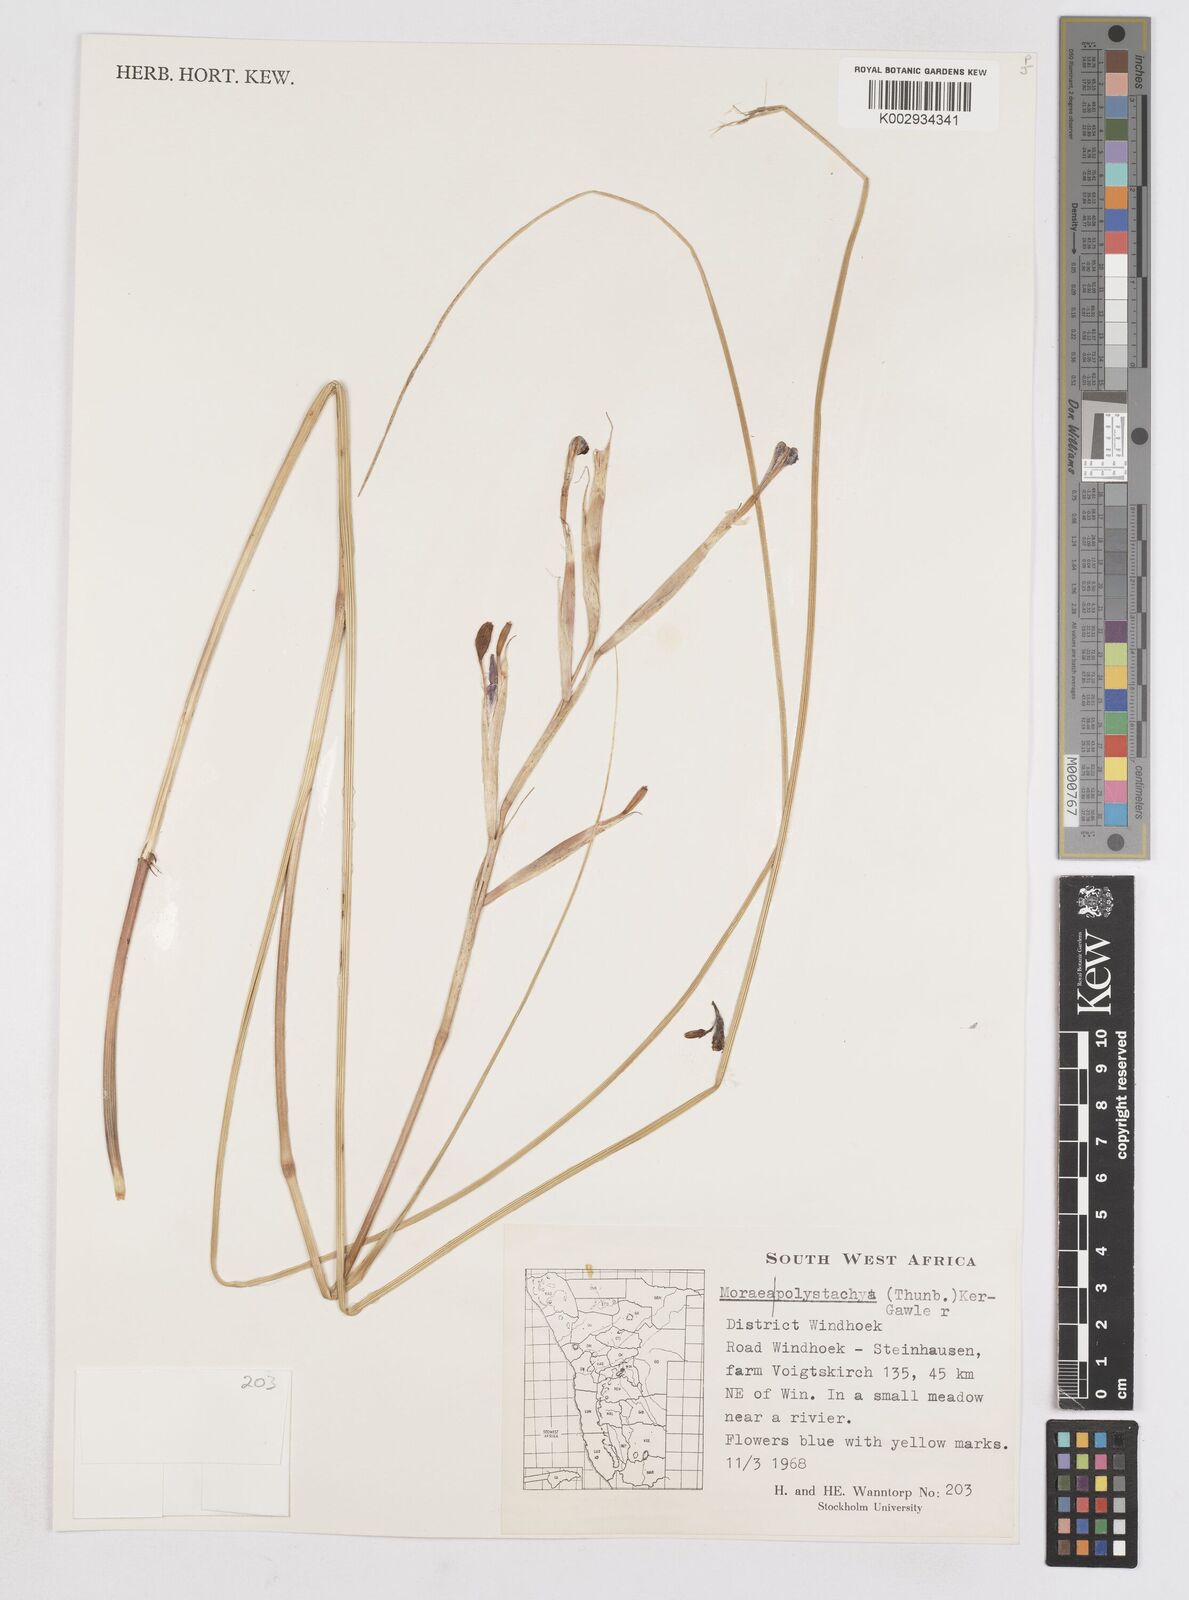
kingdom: Plantae
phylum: Tracheophyta
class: Liliopsida
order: Asparagales
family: Iridaceae
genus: Moraea
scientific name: Moraea polystachya
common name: Blue-tulip
